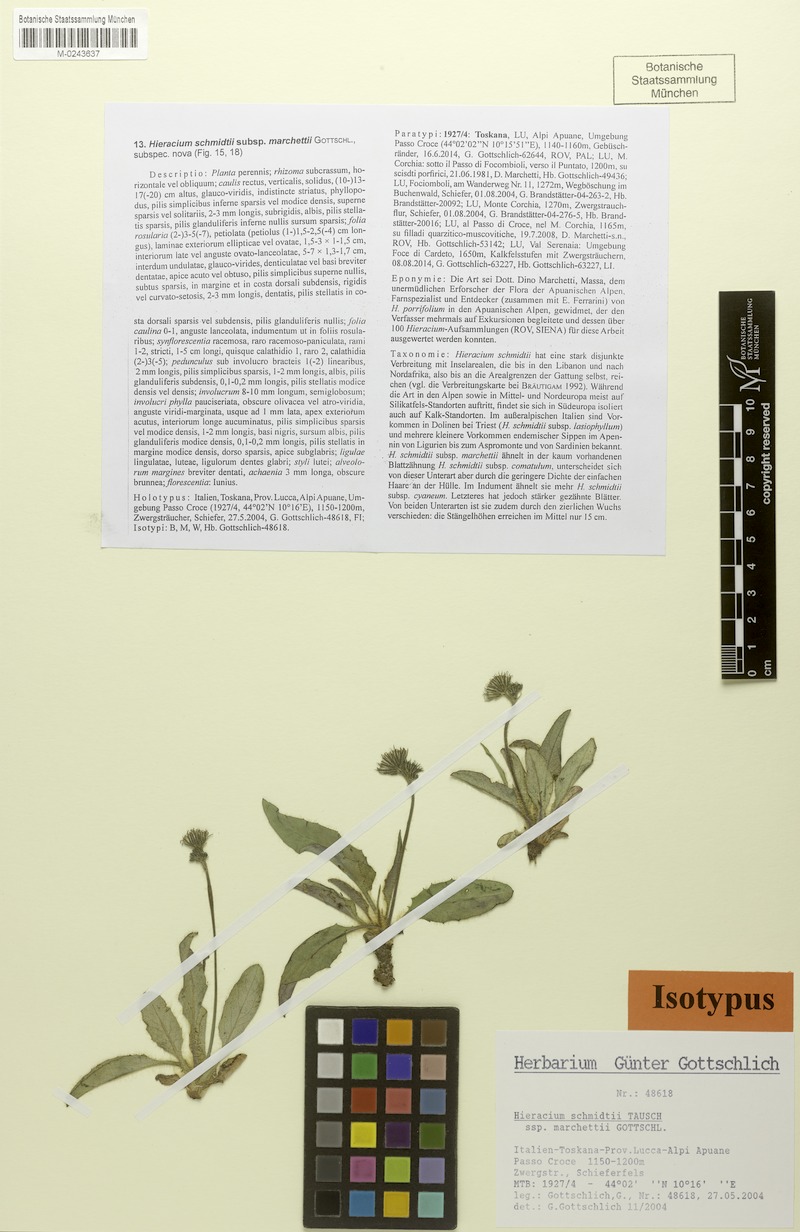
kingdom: Plantae
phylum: Tracheophyta
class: Magnoliopsida
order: Asterales
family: Asteraceae
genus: Hieracium
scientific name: Hieracium schmidtii
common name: Schmidt's hawkweed
